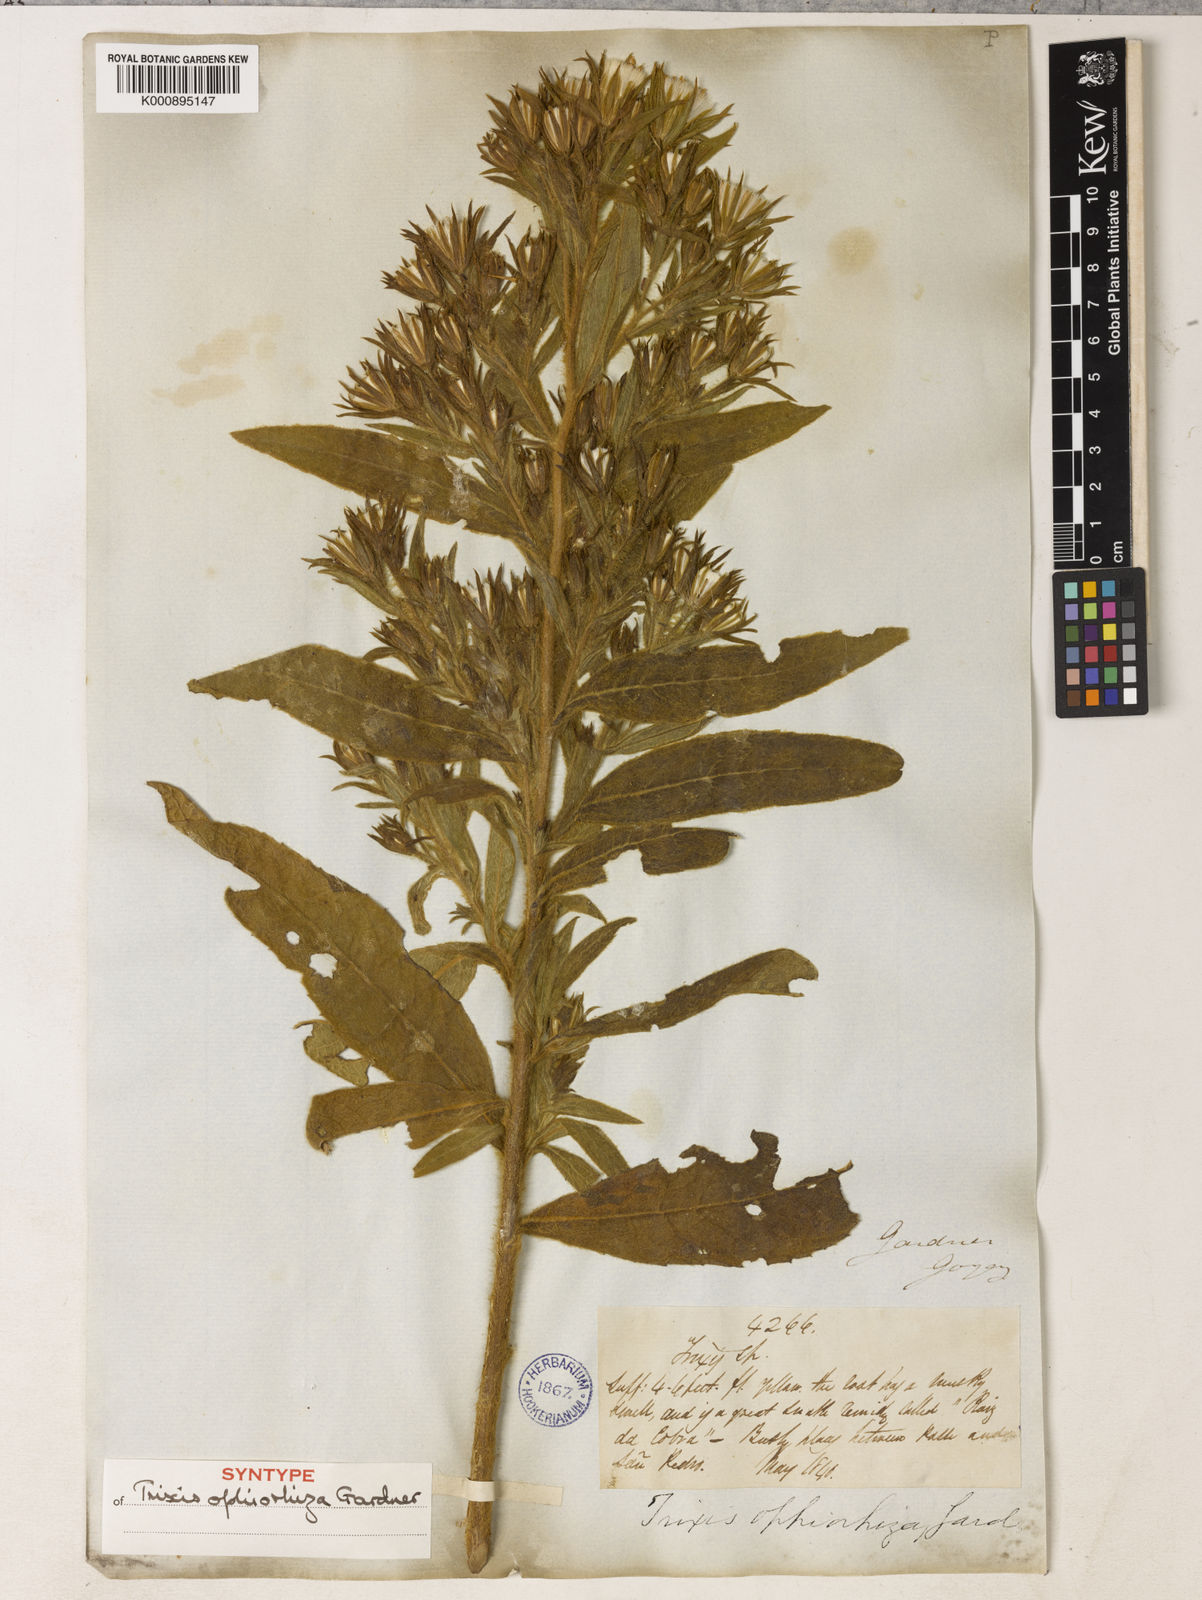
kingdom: Plantae
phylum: Tracheophyta
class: Magnoliopsida
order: Asterales
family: Asteraceae
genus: Trixis
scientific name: Trixis ophiorhiza
